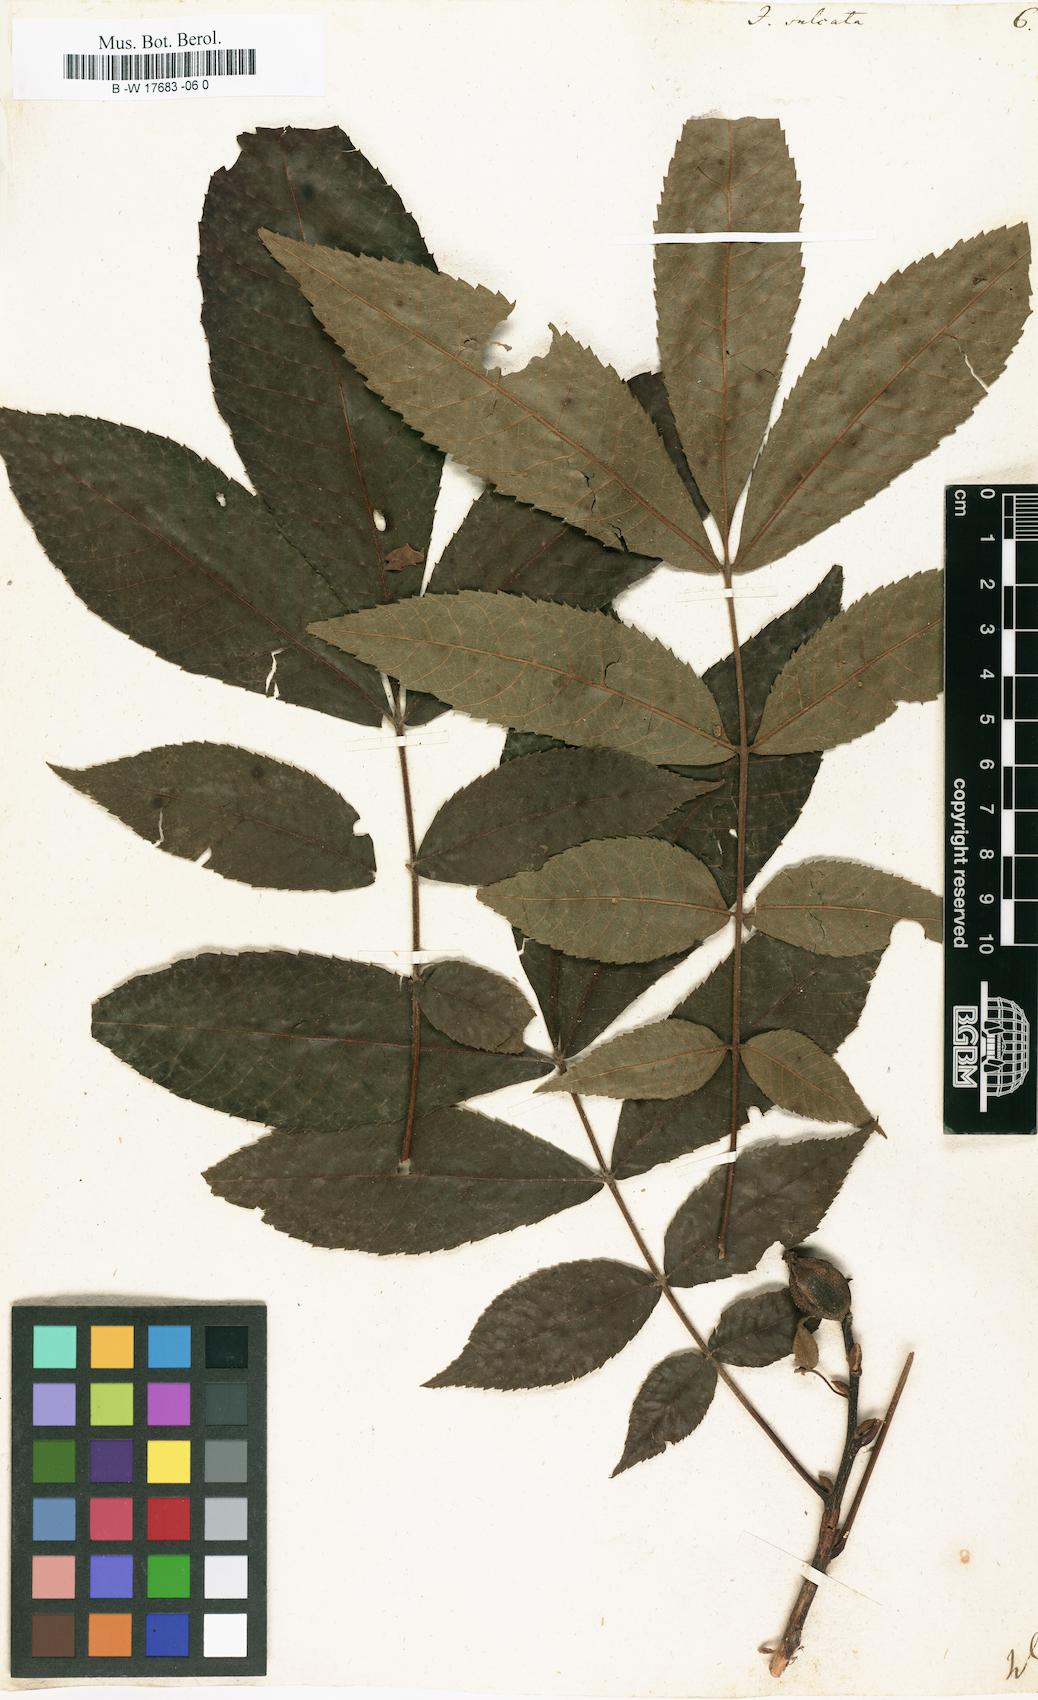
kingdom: Plantae
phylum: Tracheophyta
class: Magnoliopsida
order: Fagales
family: Juglandaceae
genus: Carya
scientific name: Carya laciniosa
